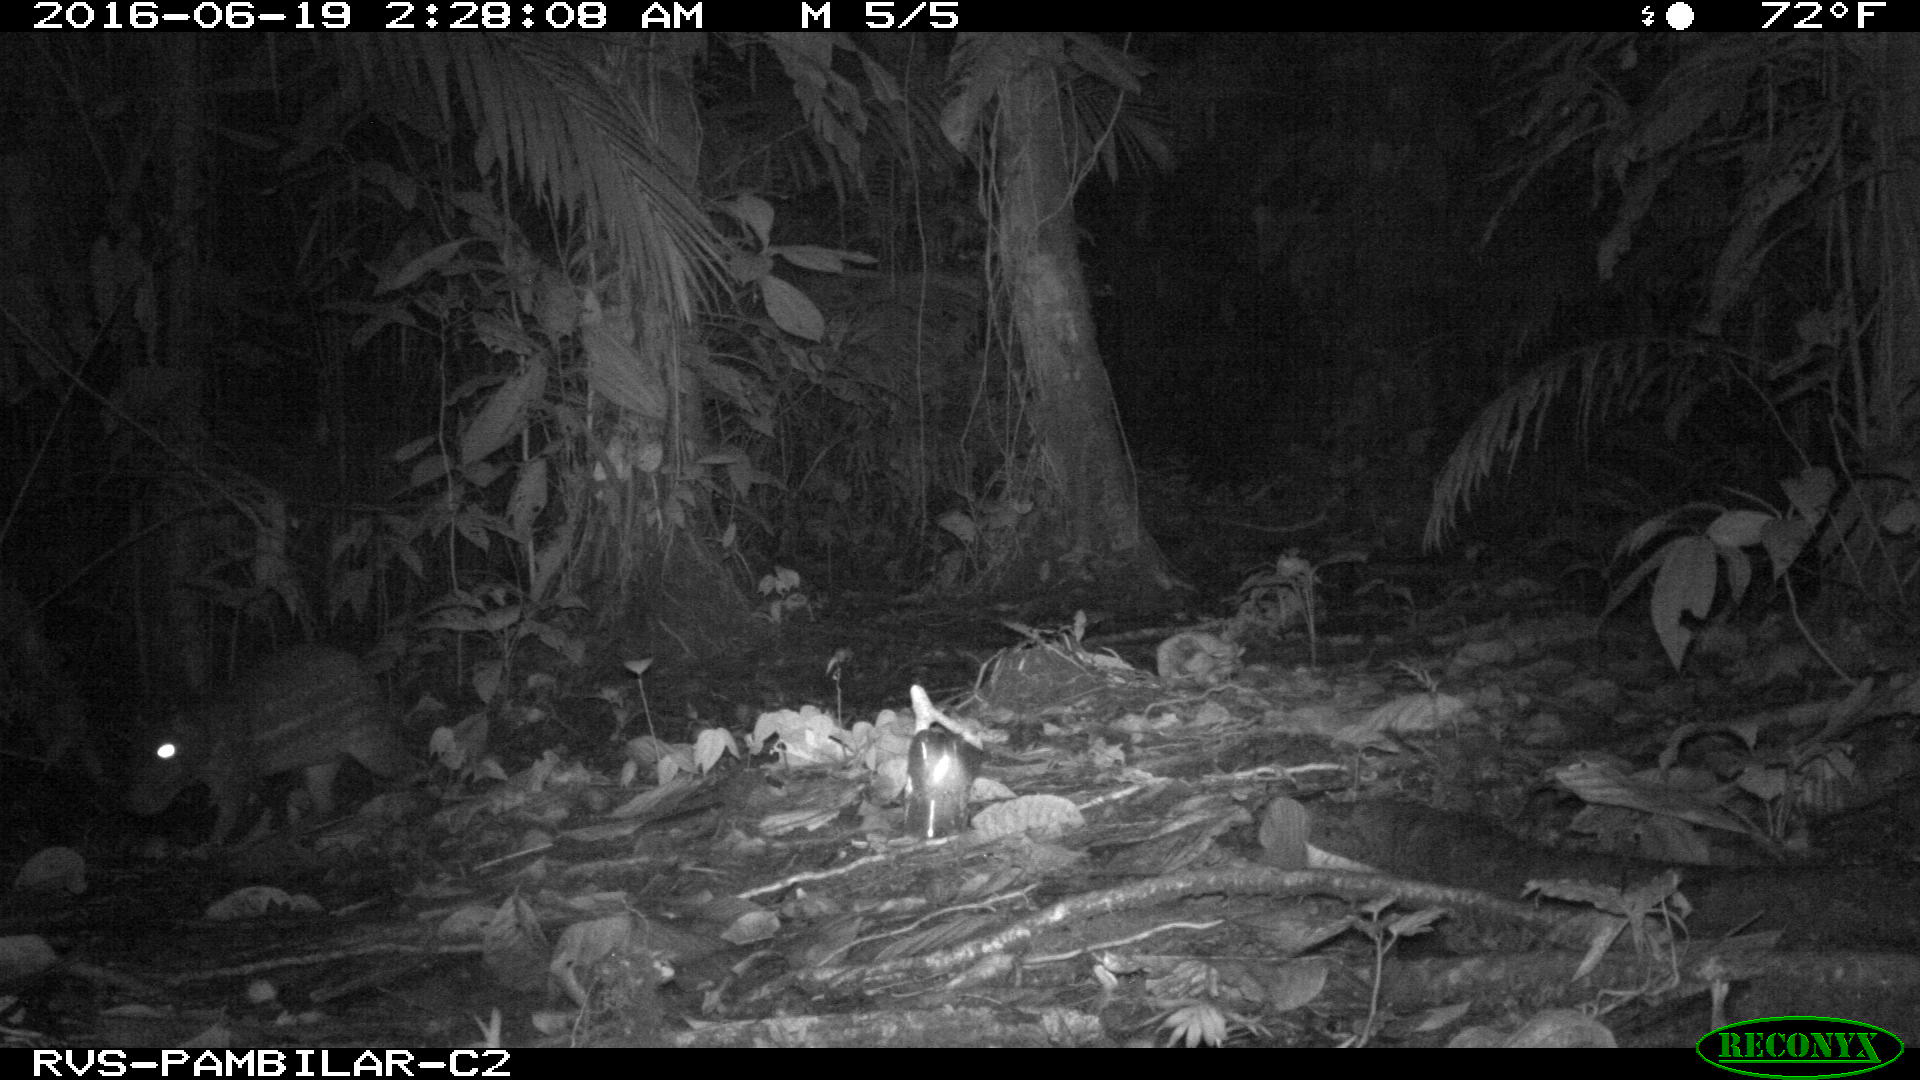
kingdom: Animalia
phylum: Chordata
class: Mammalia
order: Rodentia
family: Cuniculidae
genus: Cuniculus
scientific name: Cuniculus paca
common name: Lowland paca
